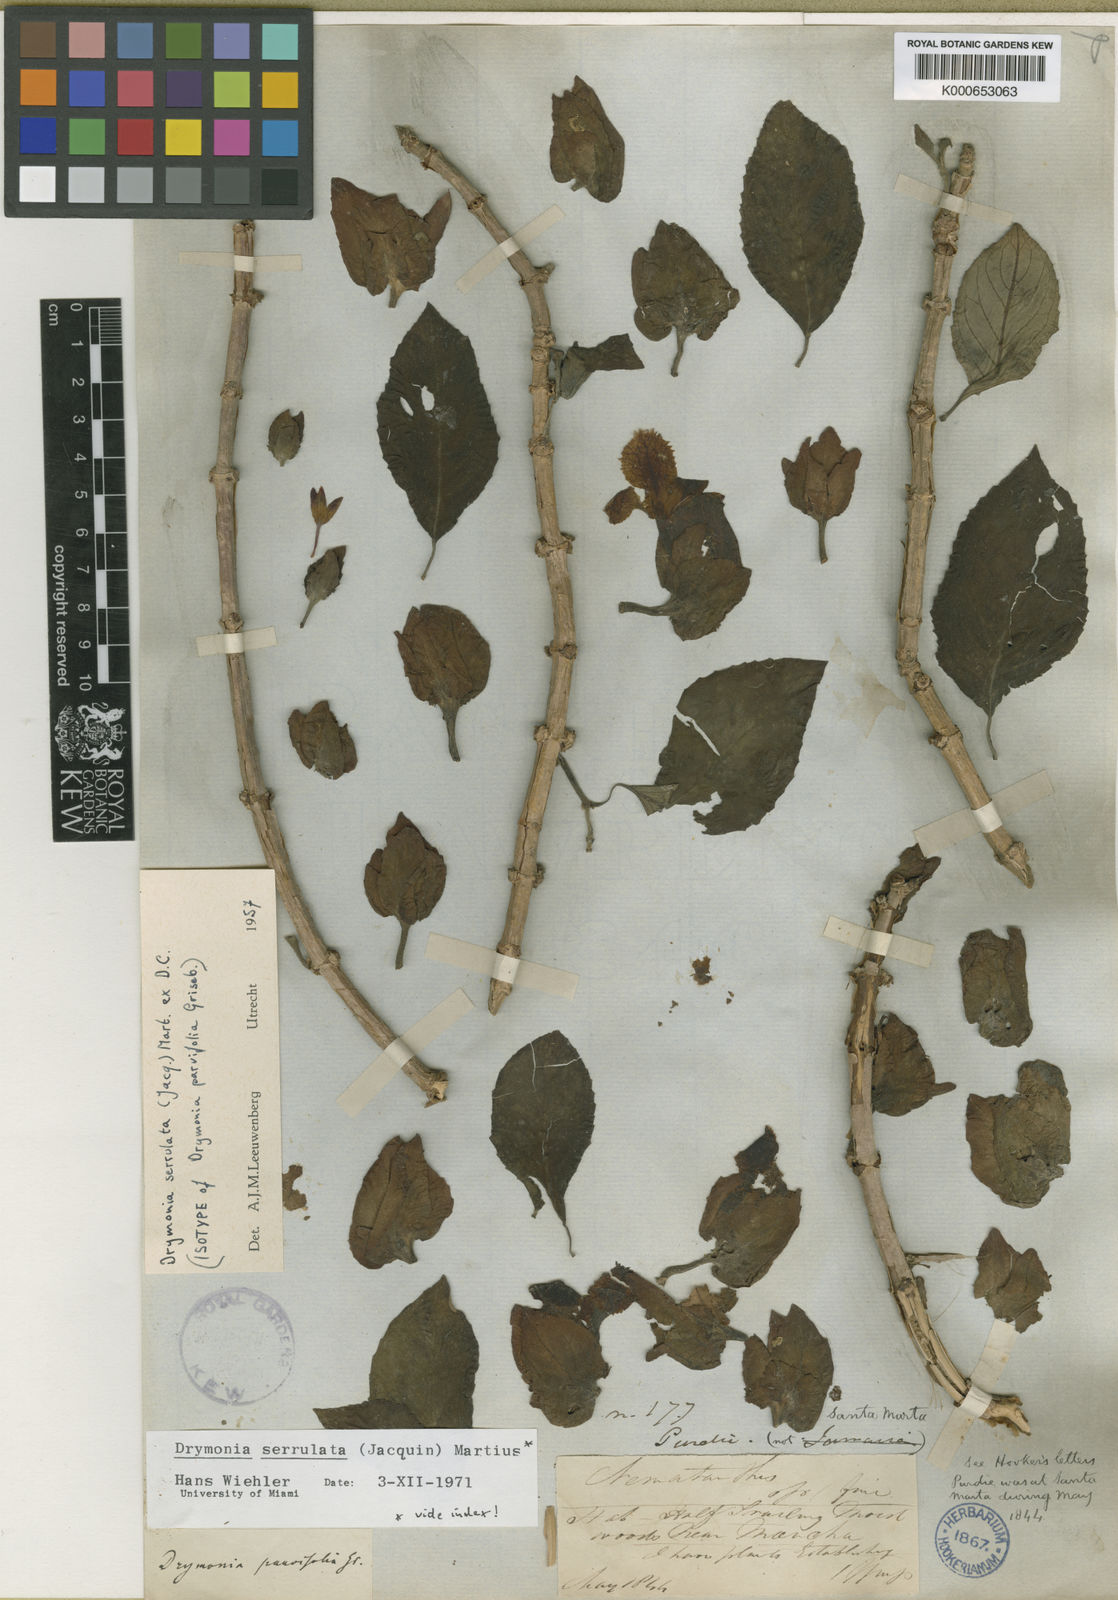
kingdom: Plantae
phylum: Tracheophyta
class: Magnoliopsida
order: Lamiales
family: Gesneriaceae
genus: Drymonia
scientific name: Drymonia serrulata
